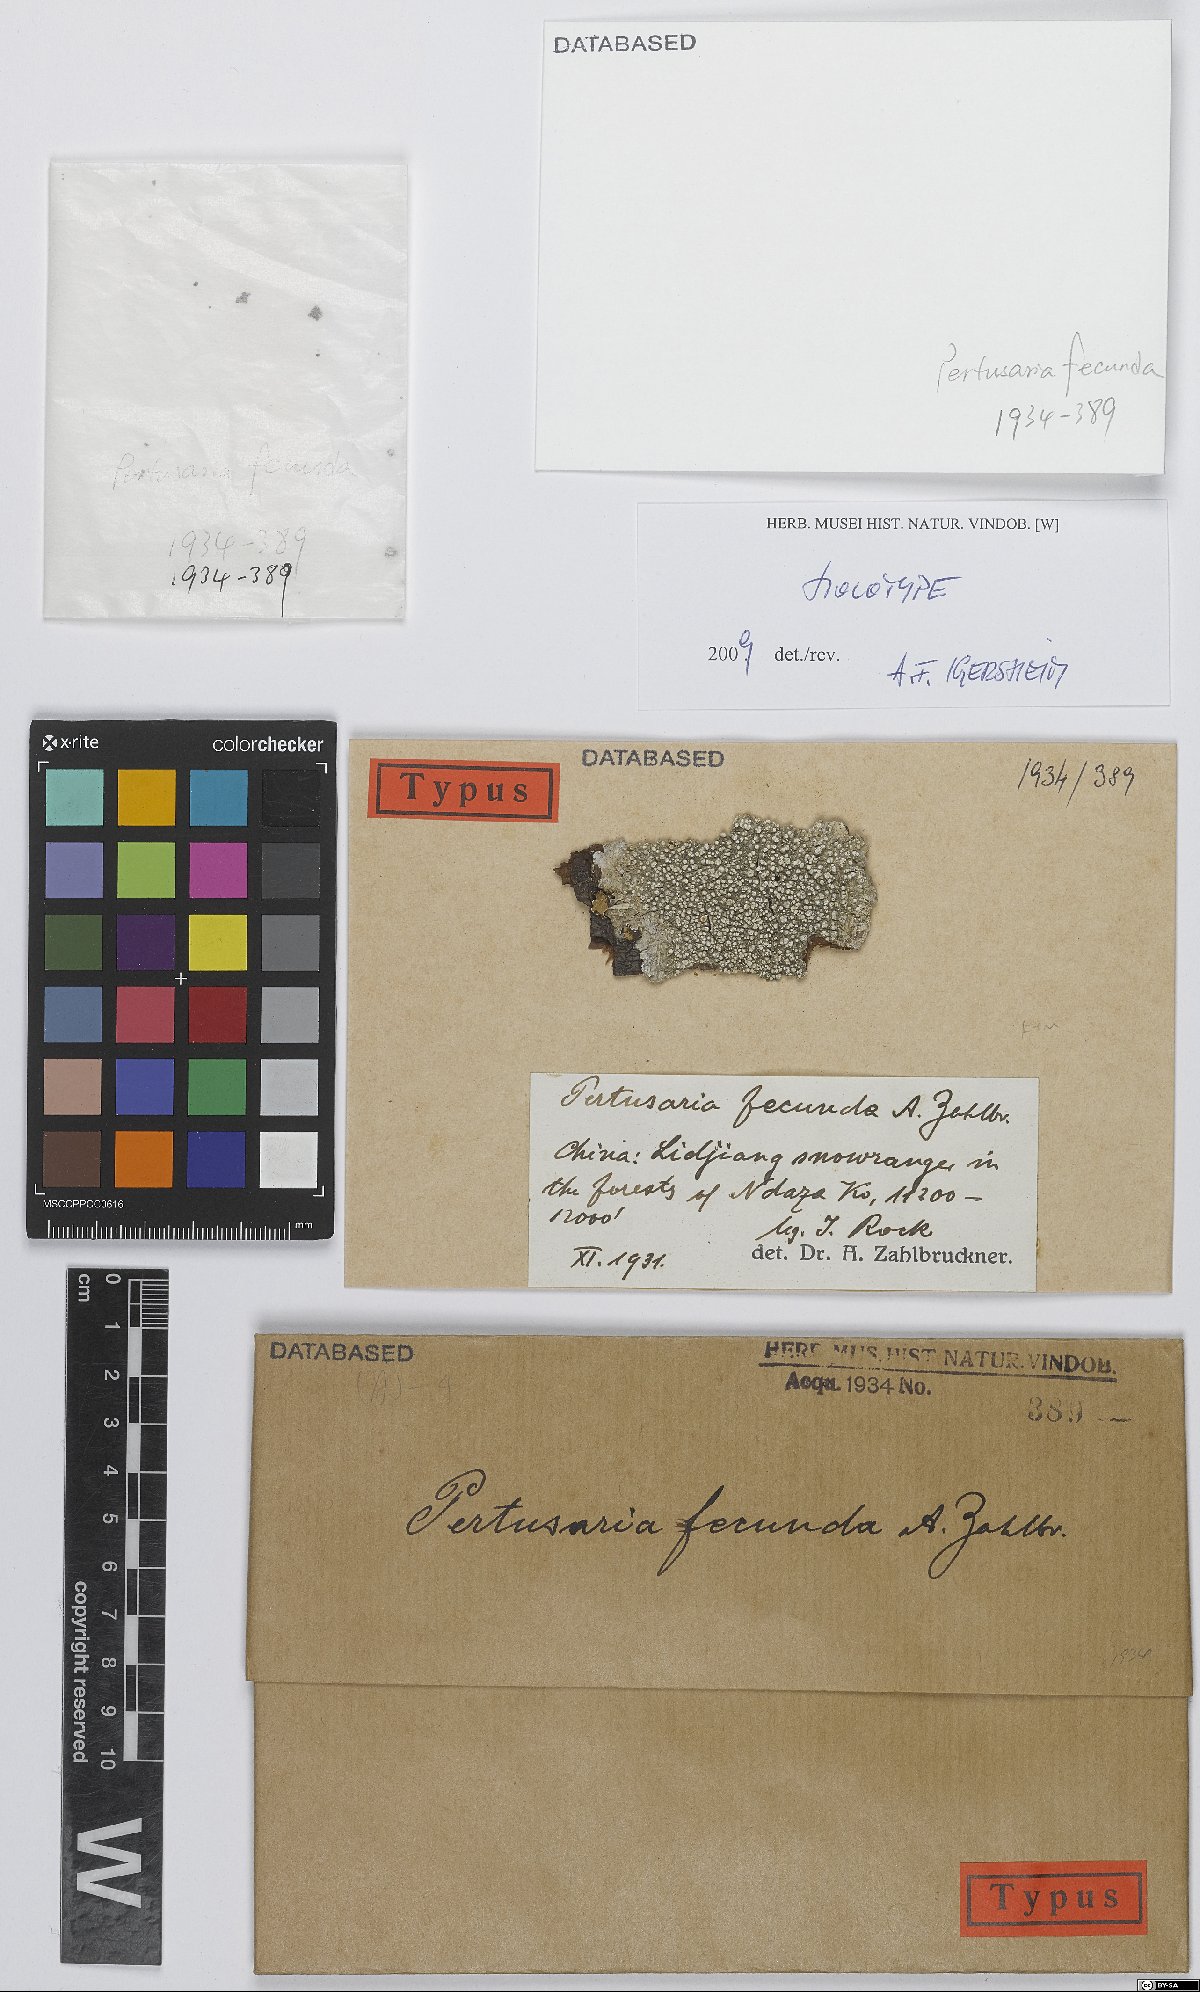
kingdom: Fungi
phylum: Ascomycota
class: Lecanoromycetes
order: Pertusariales
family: Pertusariaceae
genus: Pertusaria
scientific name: Pertusaria
